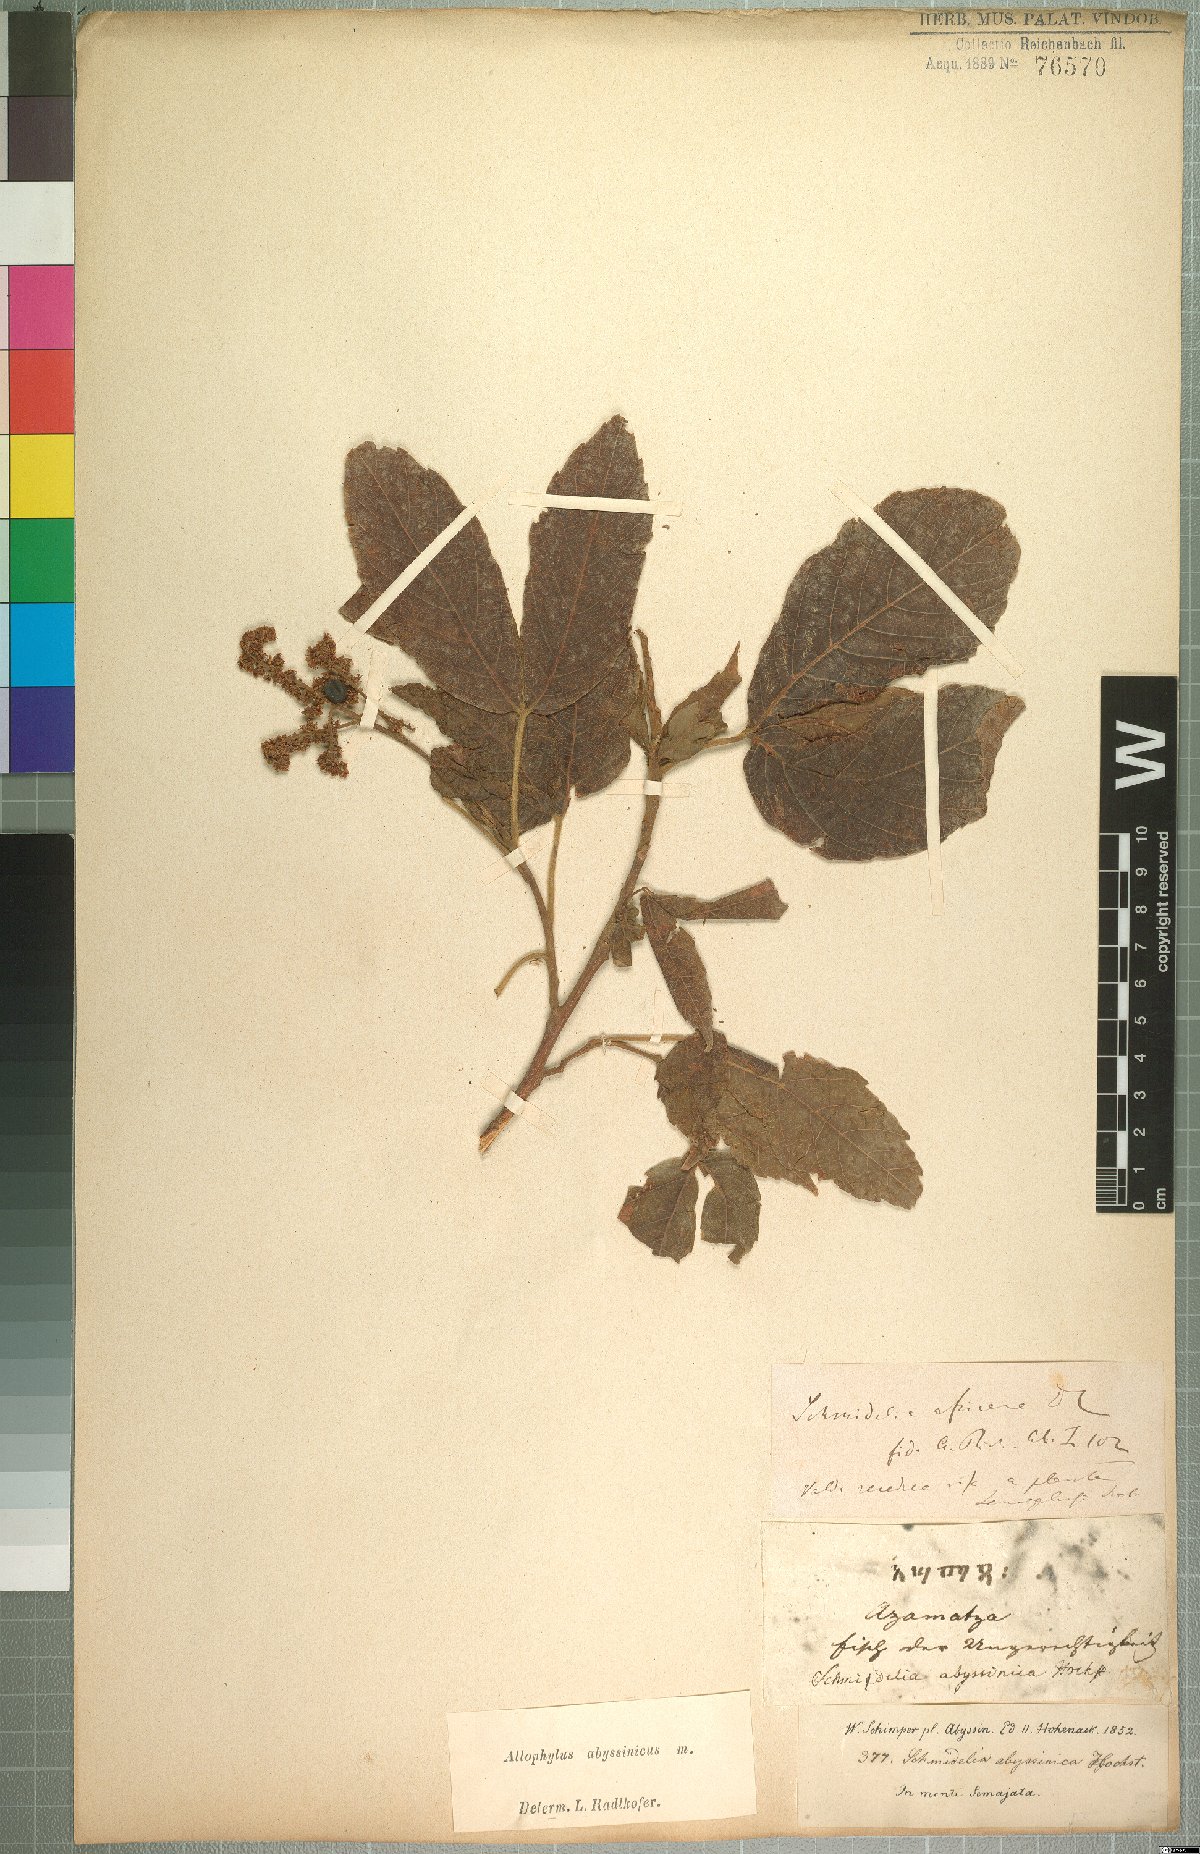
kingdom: Plantae
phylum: Tracheophyta
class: Magnoliopsida
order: Sapindales
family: Sapindaceae
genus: Allophylus
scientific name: Allophylus abyssinicus
